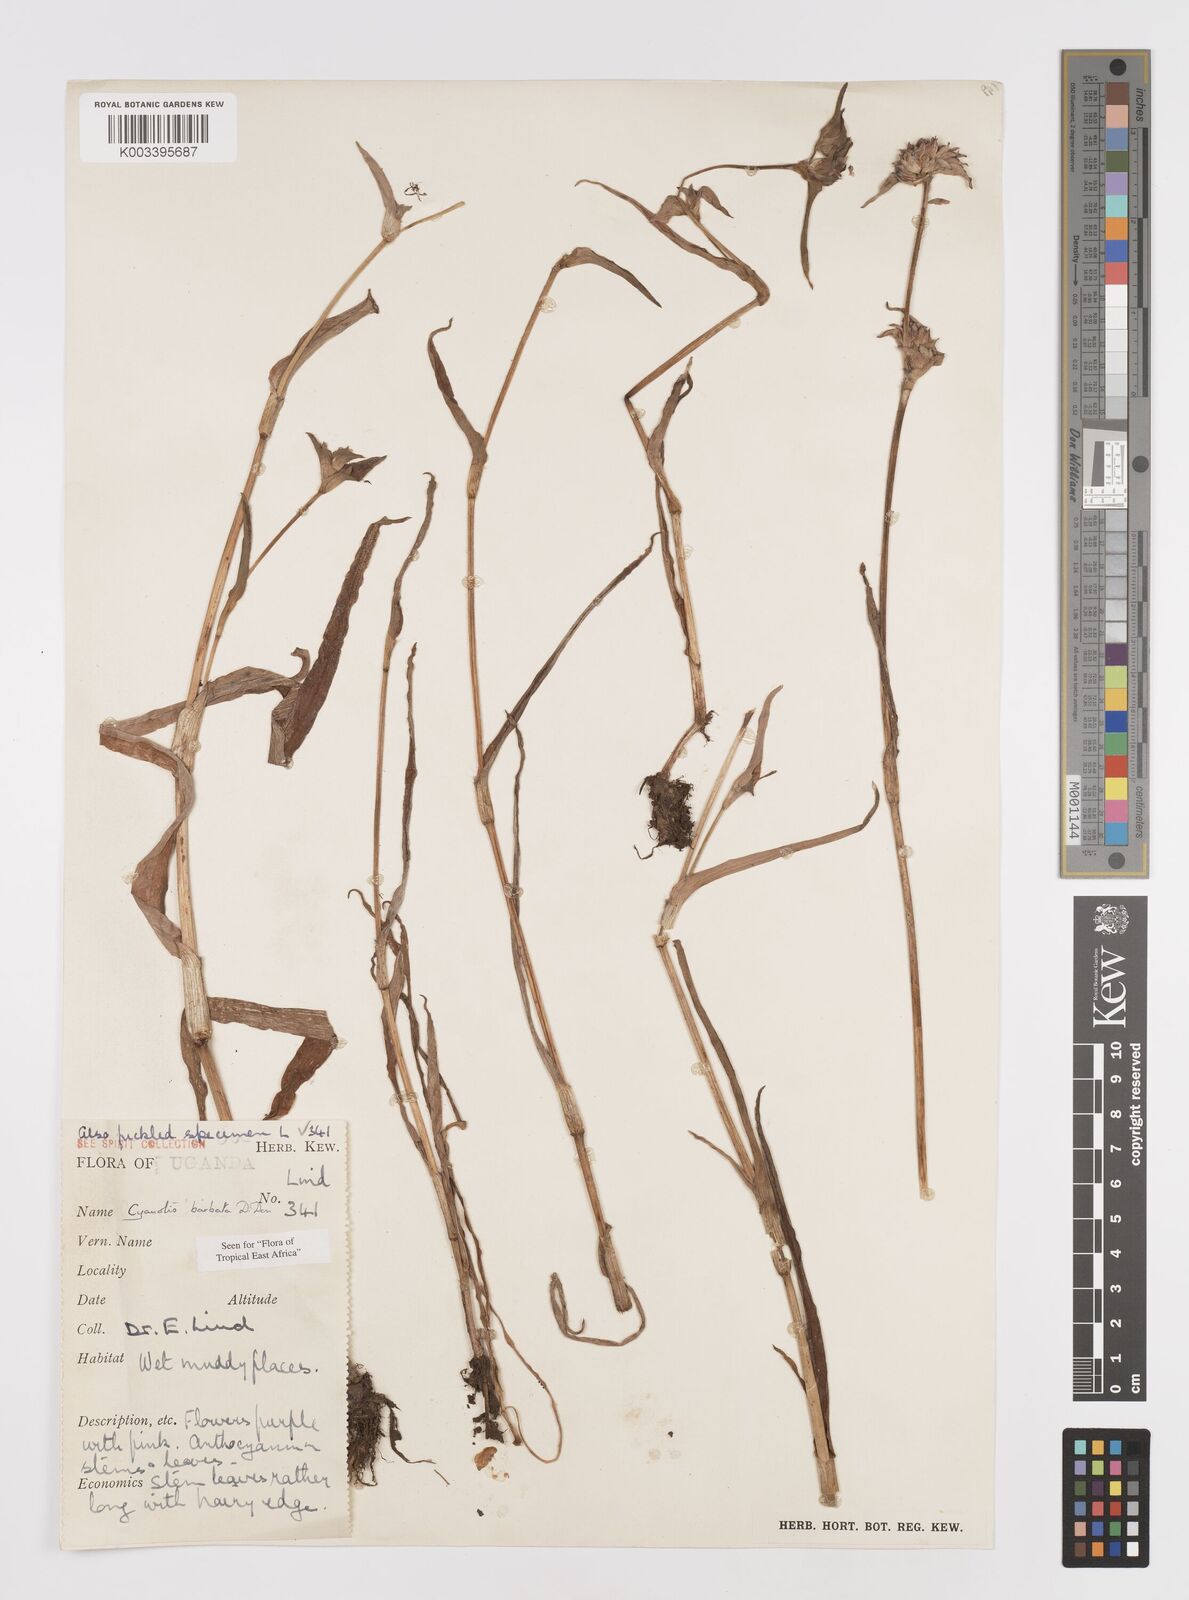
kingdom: Plantae
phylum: Tracheophyta
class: Liliopsida
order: Commelinales
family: Commelinaceae
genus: Cyanotis
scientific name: Cyanotis vaga
